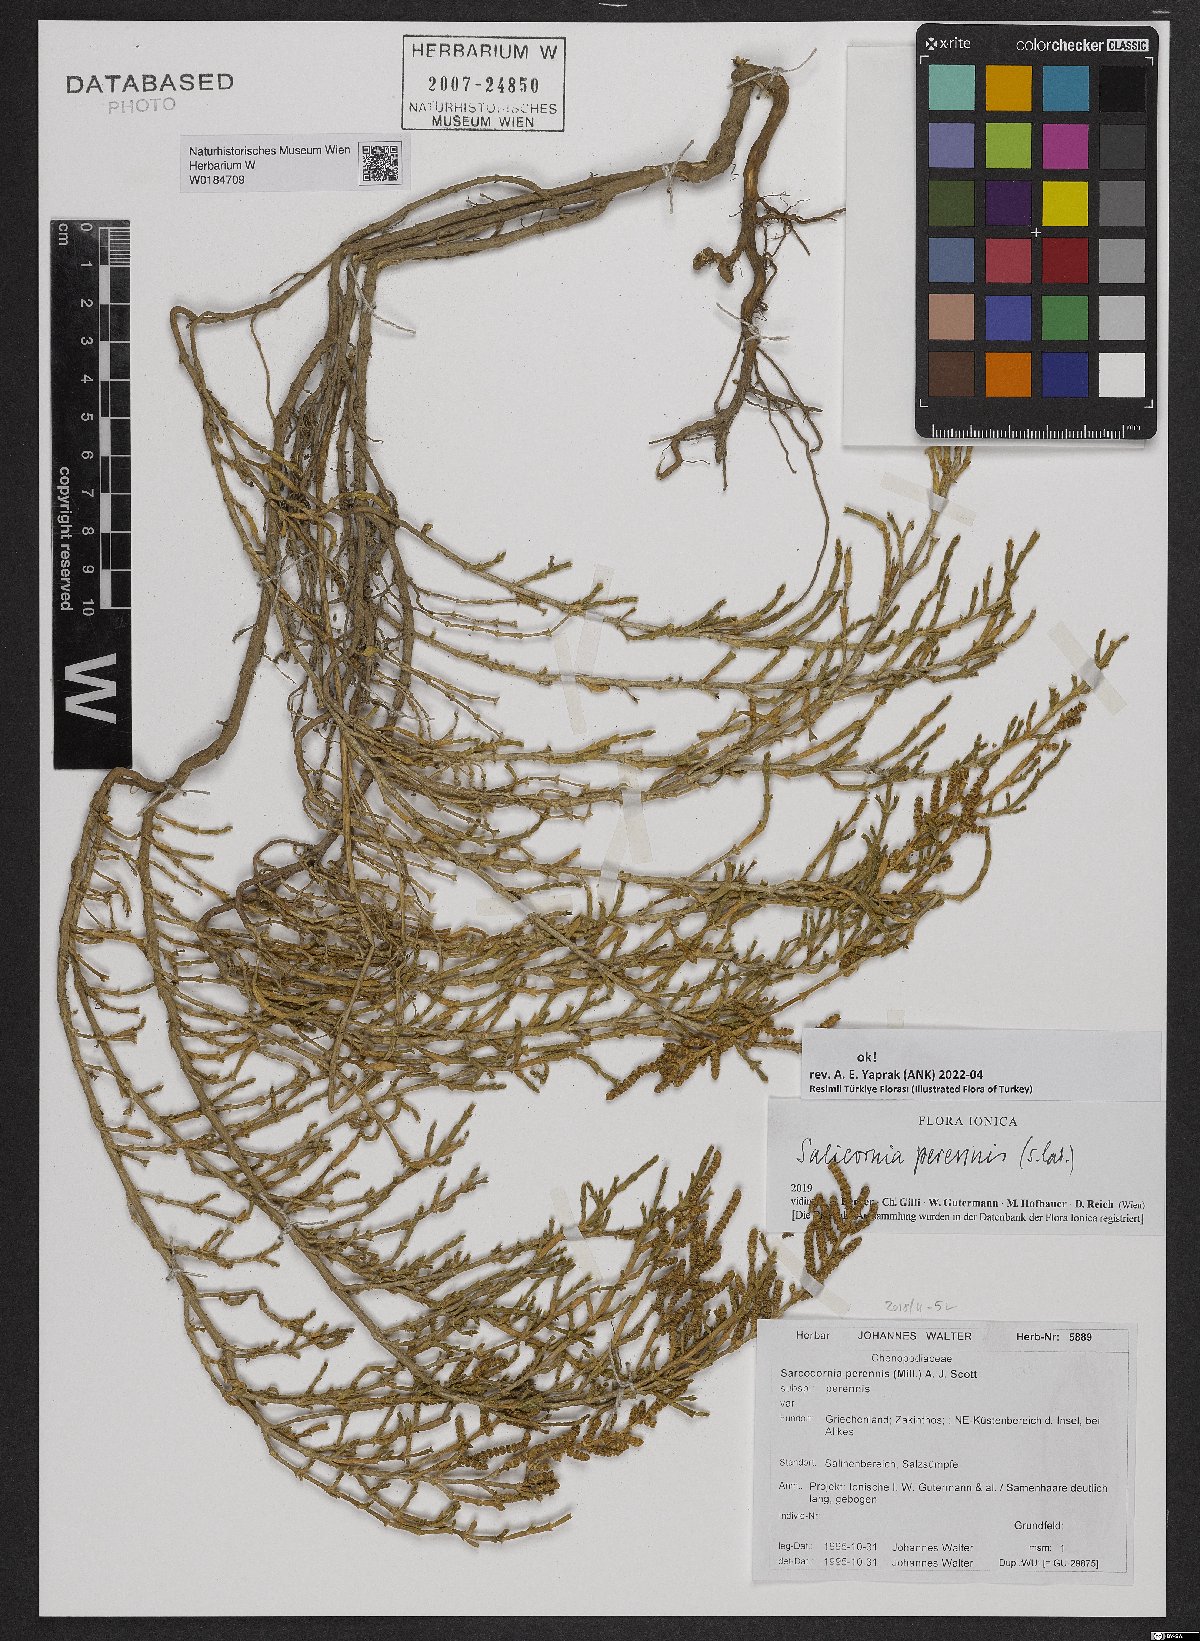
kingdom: Plantae
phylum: Tracheophyta
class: Magnoliopsida
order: Caryophyllales
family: Amaranthaceae
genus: Salicornia
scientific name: Salicornia perennis
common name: Chicken claws
